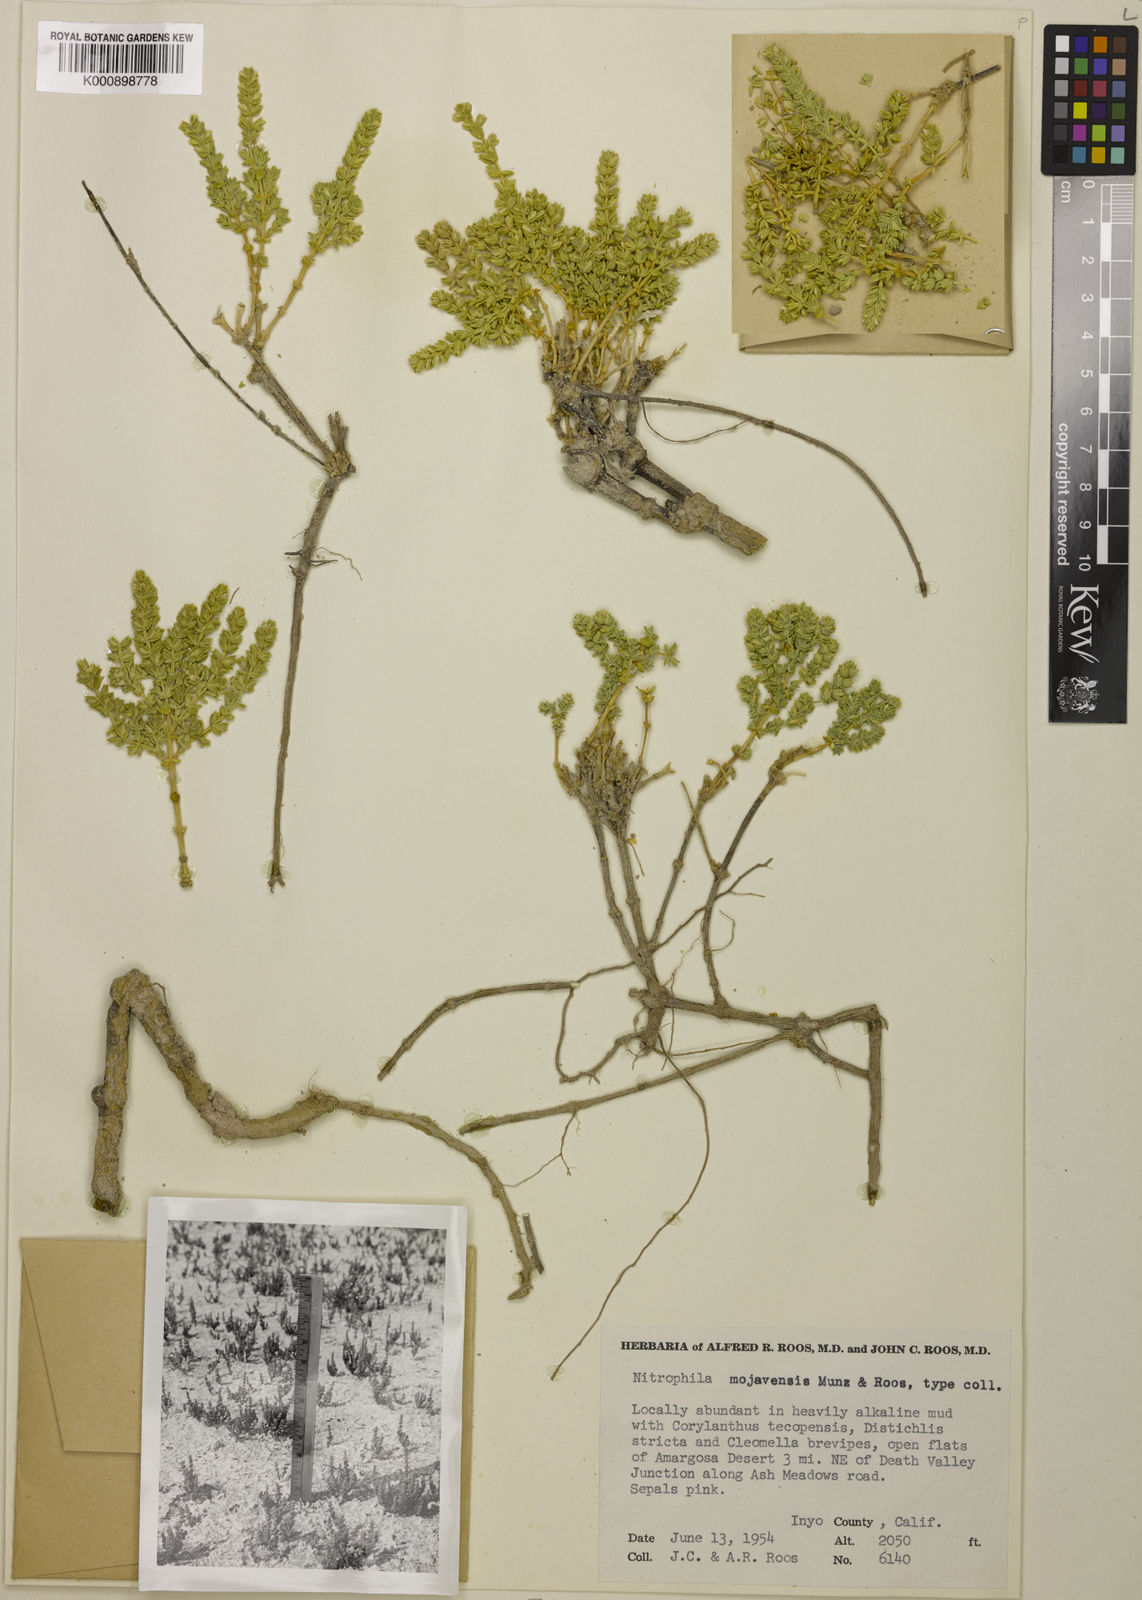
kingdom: Plantae
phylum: Tracheophyta
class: Magnoliopsida
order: Caryophyllales
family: Amaranthaceae
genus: Nitrophila
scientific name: Nitrophila mohavensis
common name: Amargosa niterwort
